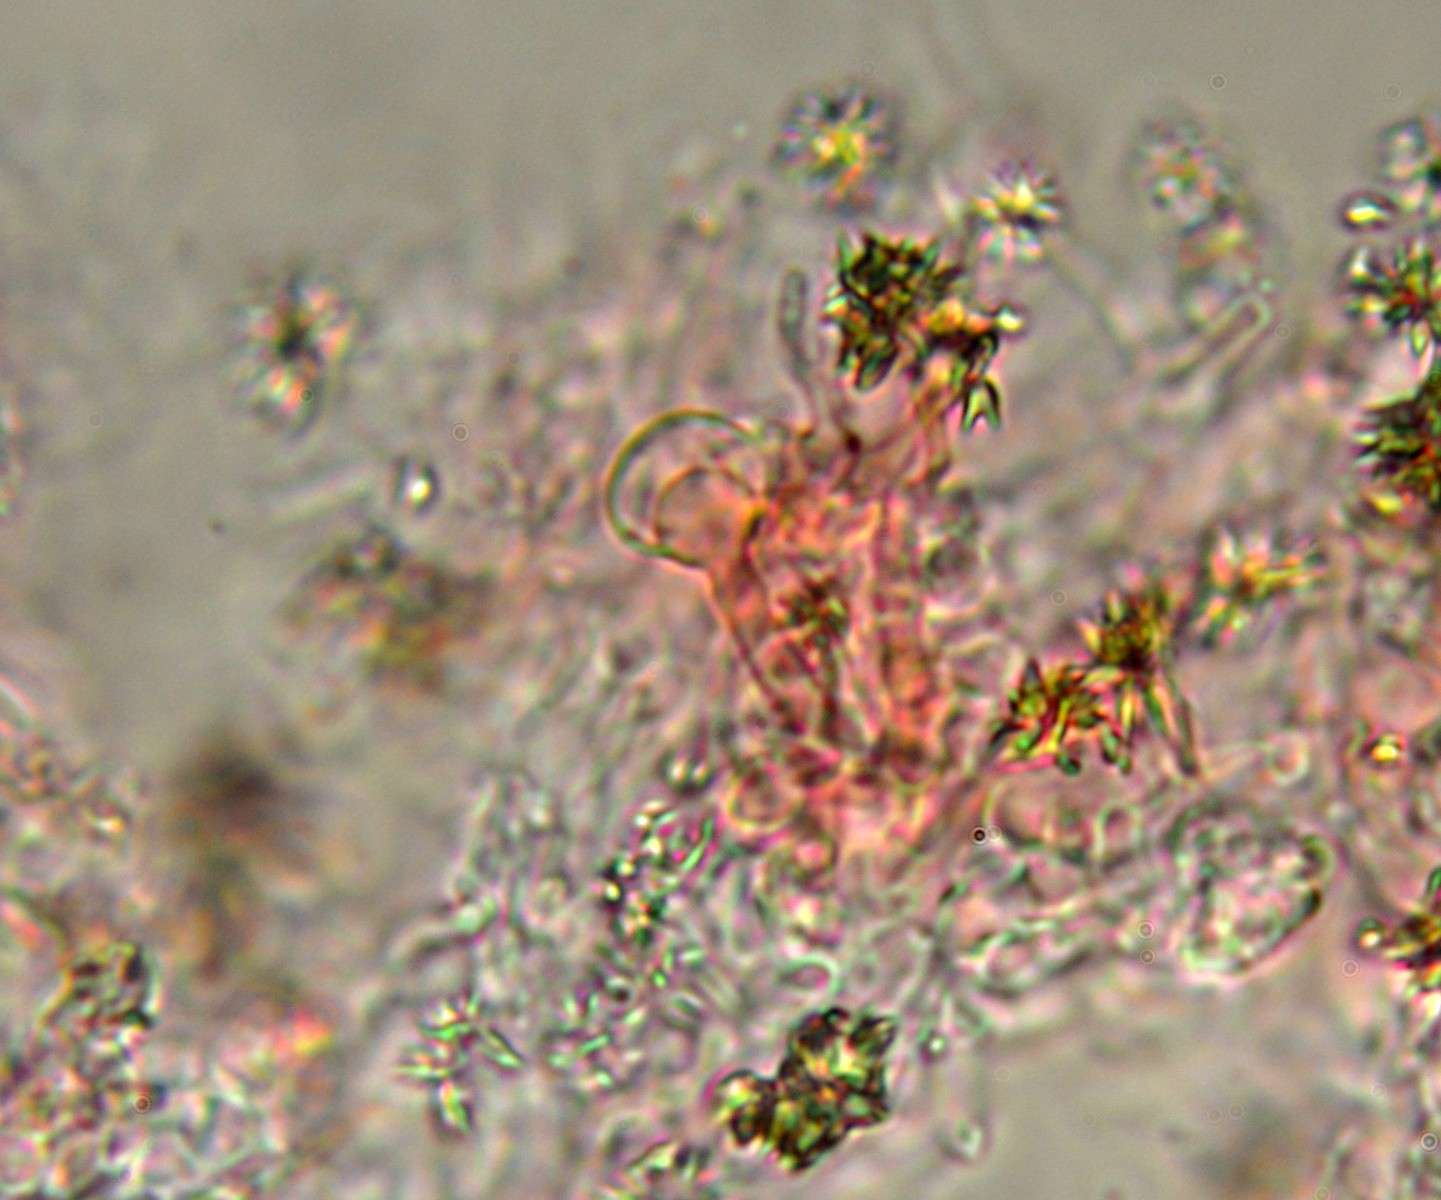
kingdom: Fungi
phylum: Basidiomycota
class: Agaricomycetes
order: Hymenochaetales
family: Rickenellaceae
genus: Resinicium
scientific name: Resinicium bicolor
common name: almindelig vokstand
